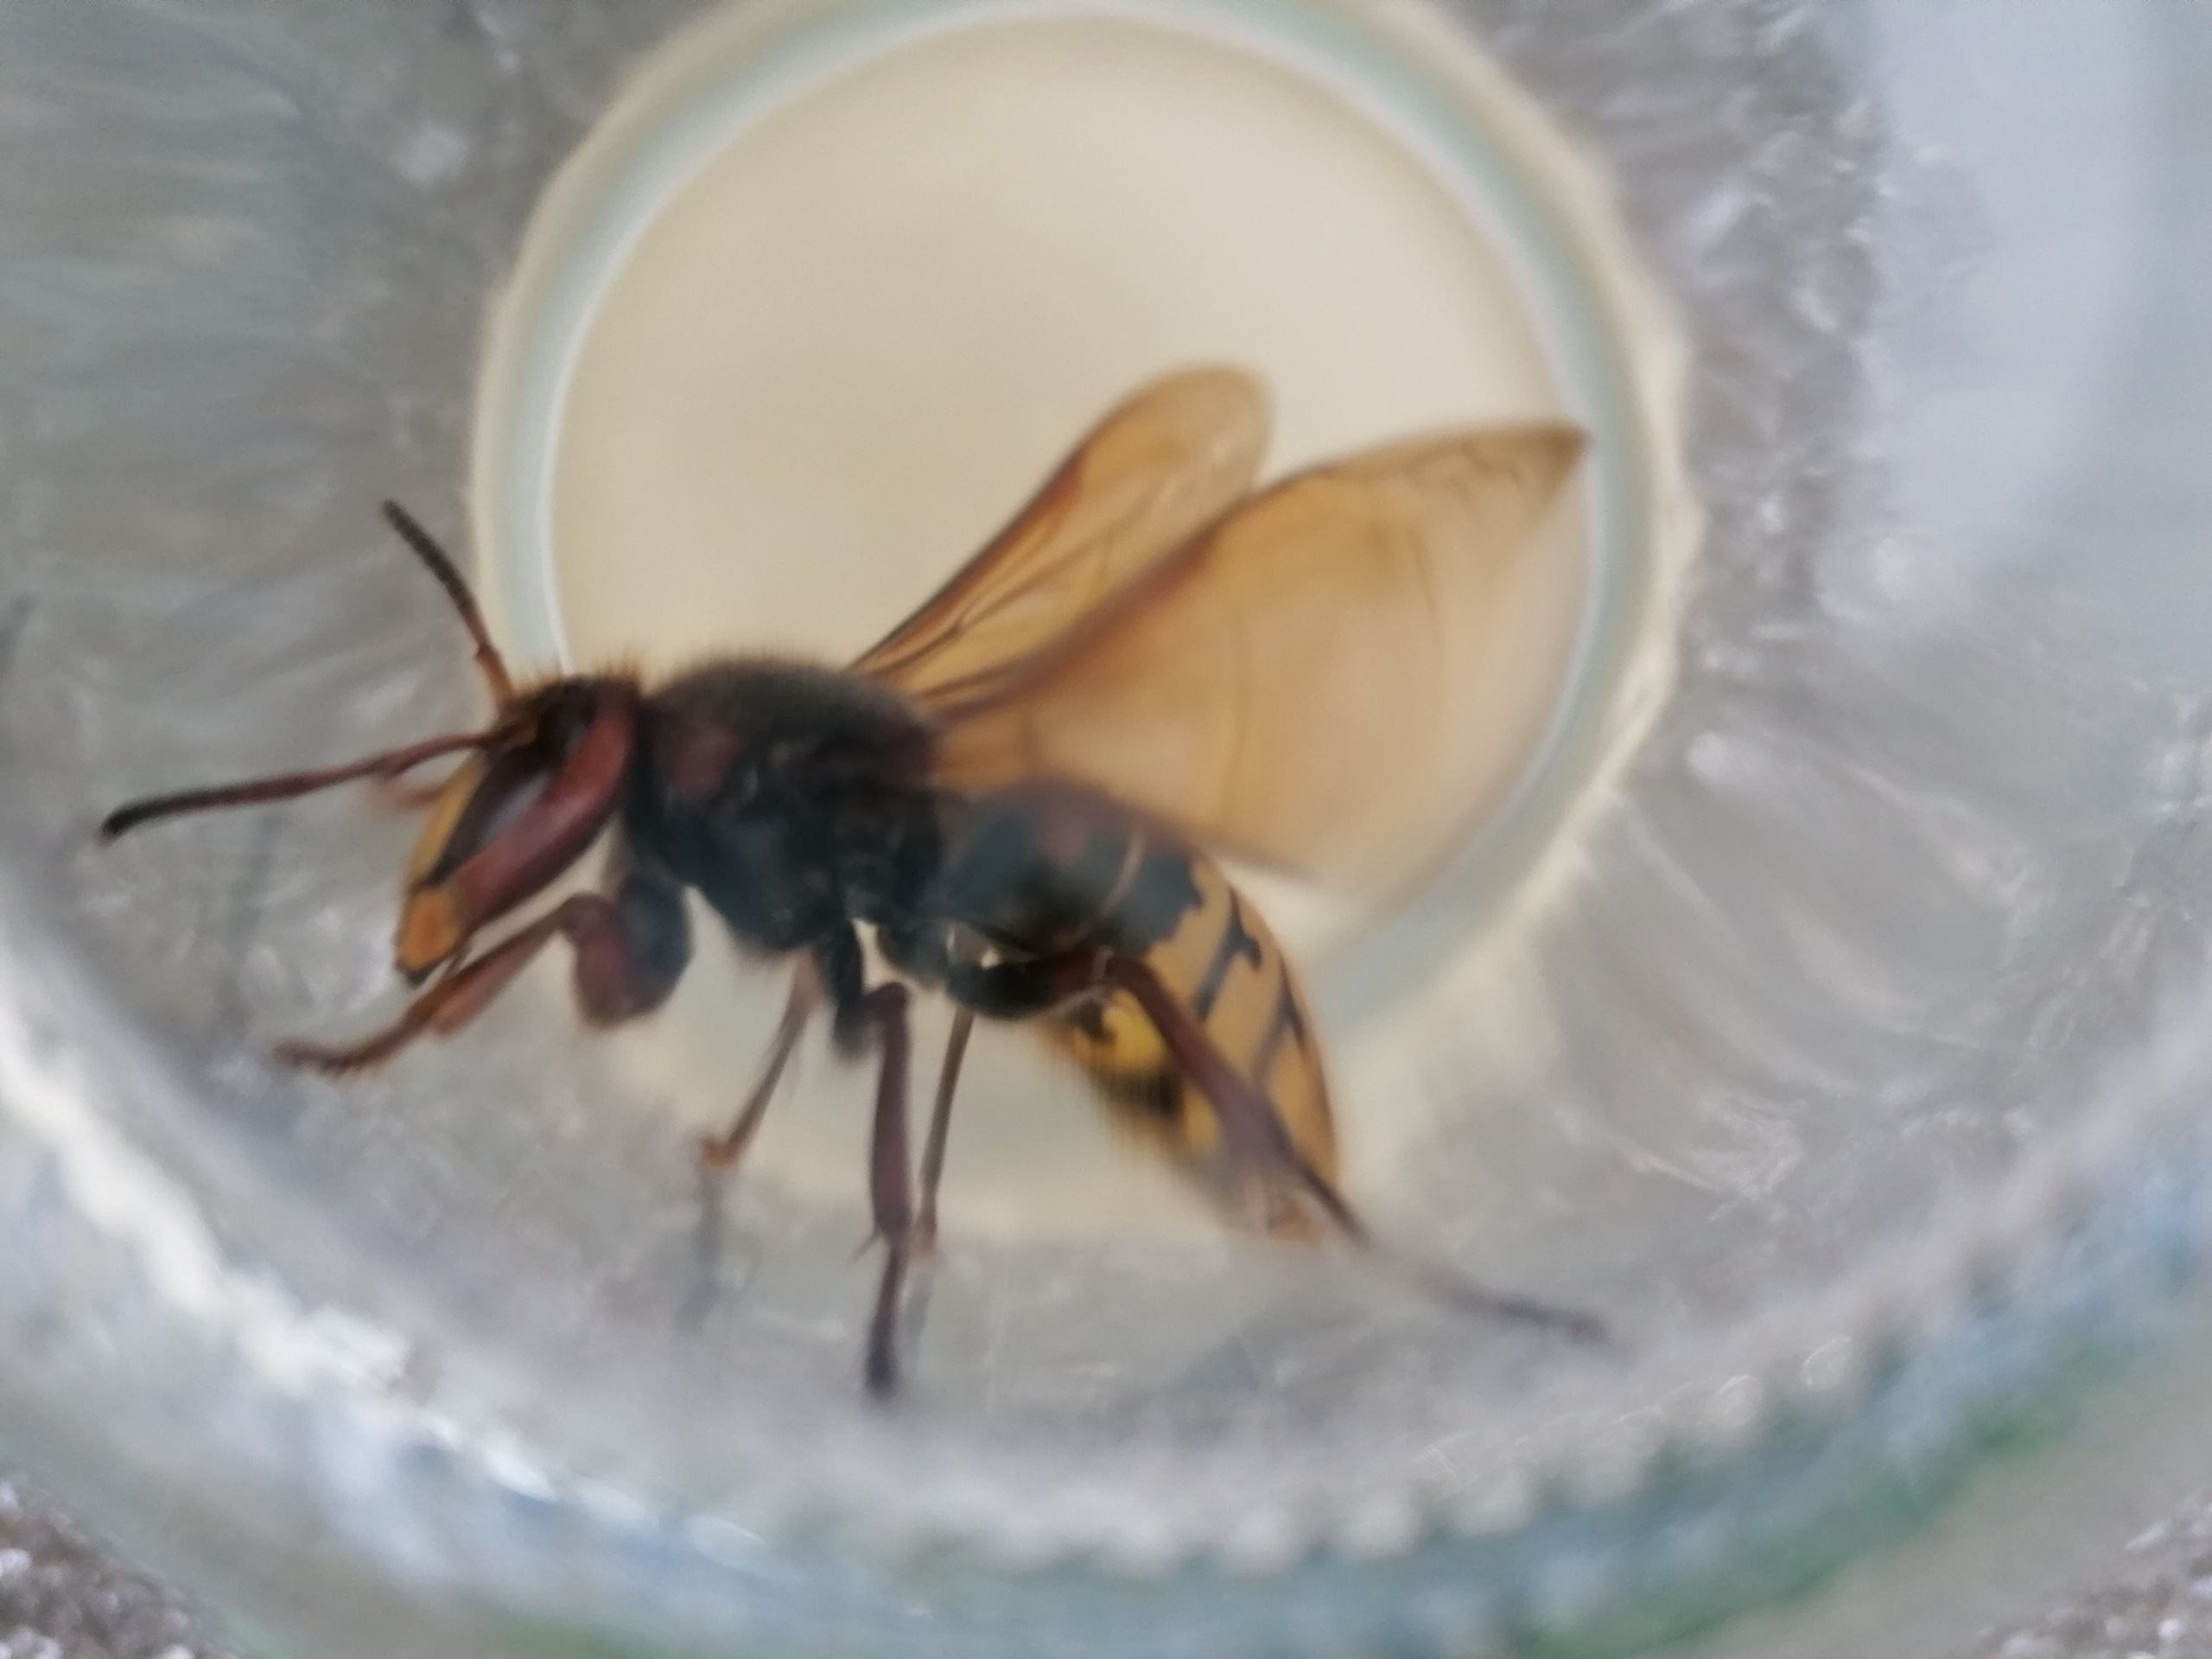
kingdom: Animalia
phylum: Arthropoda
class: Insecta
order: Hymenoptera
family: Vespidae
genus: Vespa
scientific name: Vespa crabro
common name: Stor gedehams
